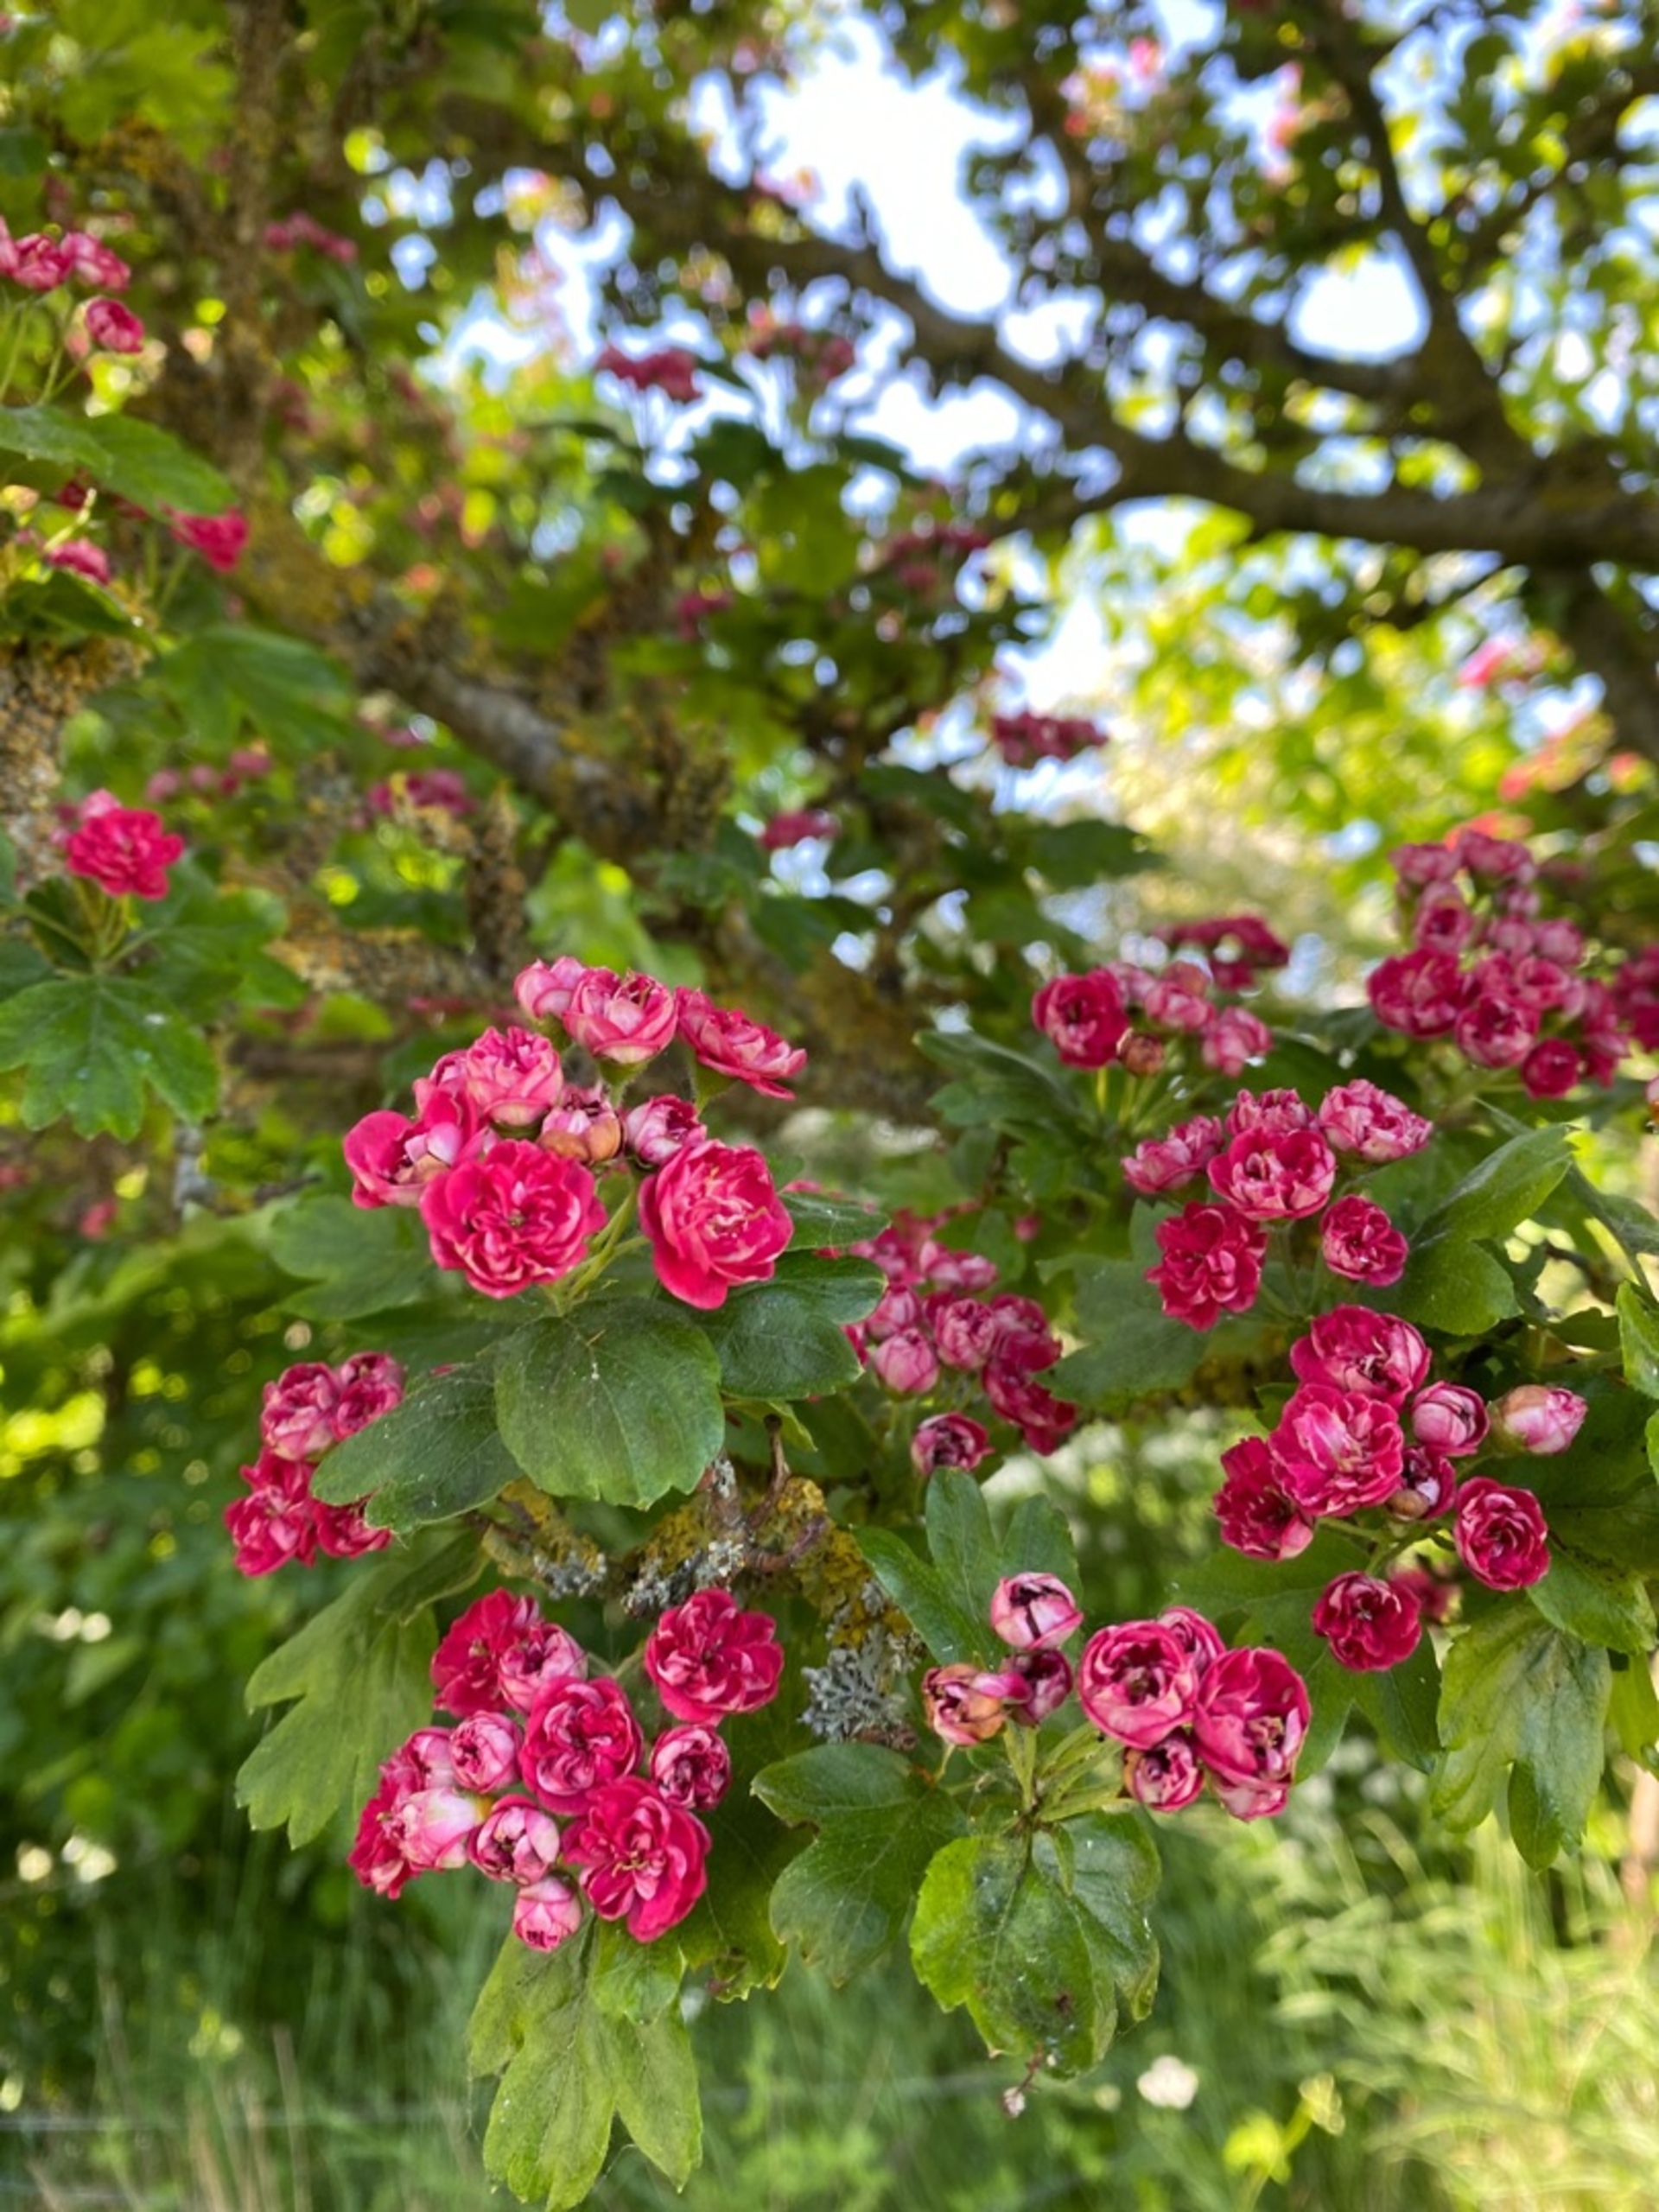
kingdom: Plantae
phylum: Tracheophyta
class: Magnoliopsida
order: Rosales
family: Rosaceae
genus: Crataegus
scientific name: Crataegus monogyna
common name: Engriflet hvidtjørn
